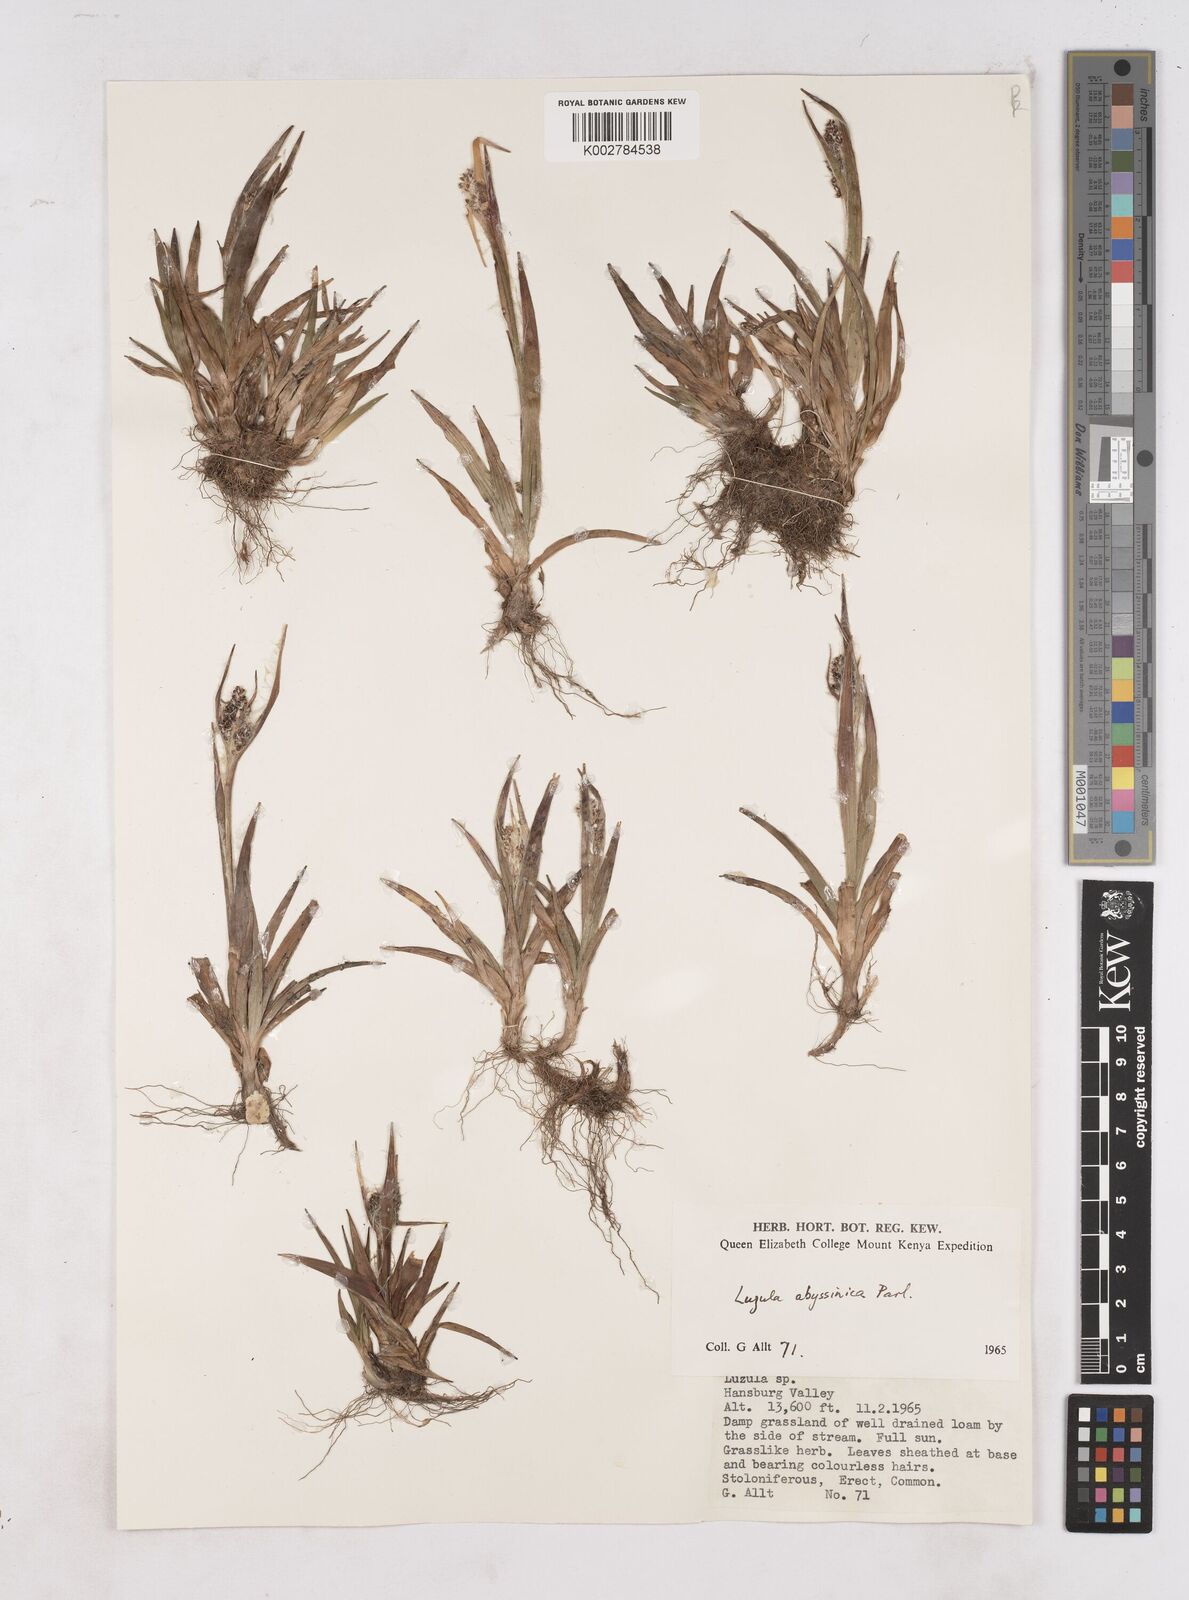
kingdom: Plantae
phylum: Tracheophyta
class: Liliopsida
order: Poales
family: Juncaceae
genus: Luzula
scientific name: Luzula abyssinica
